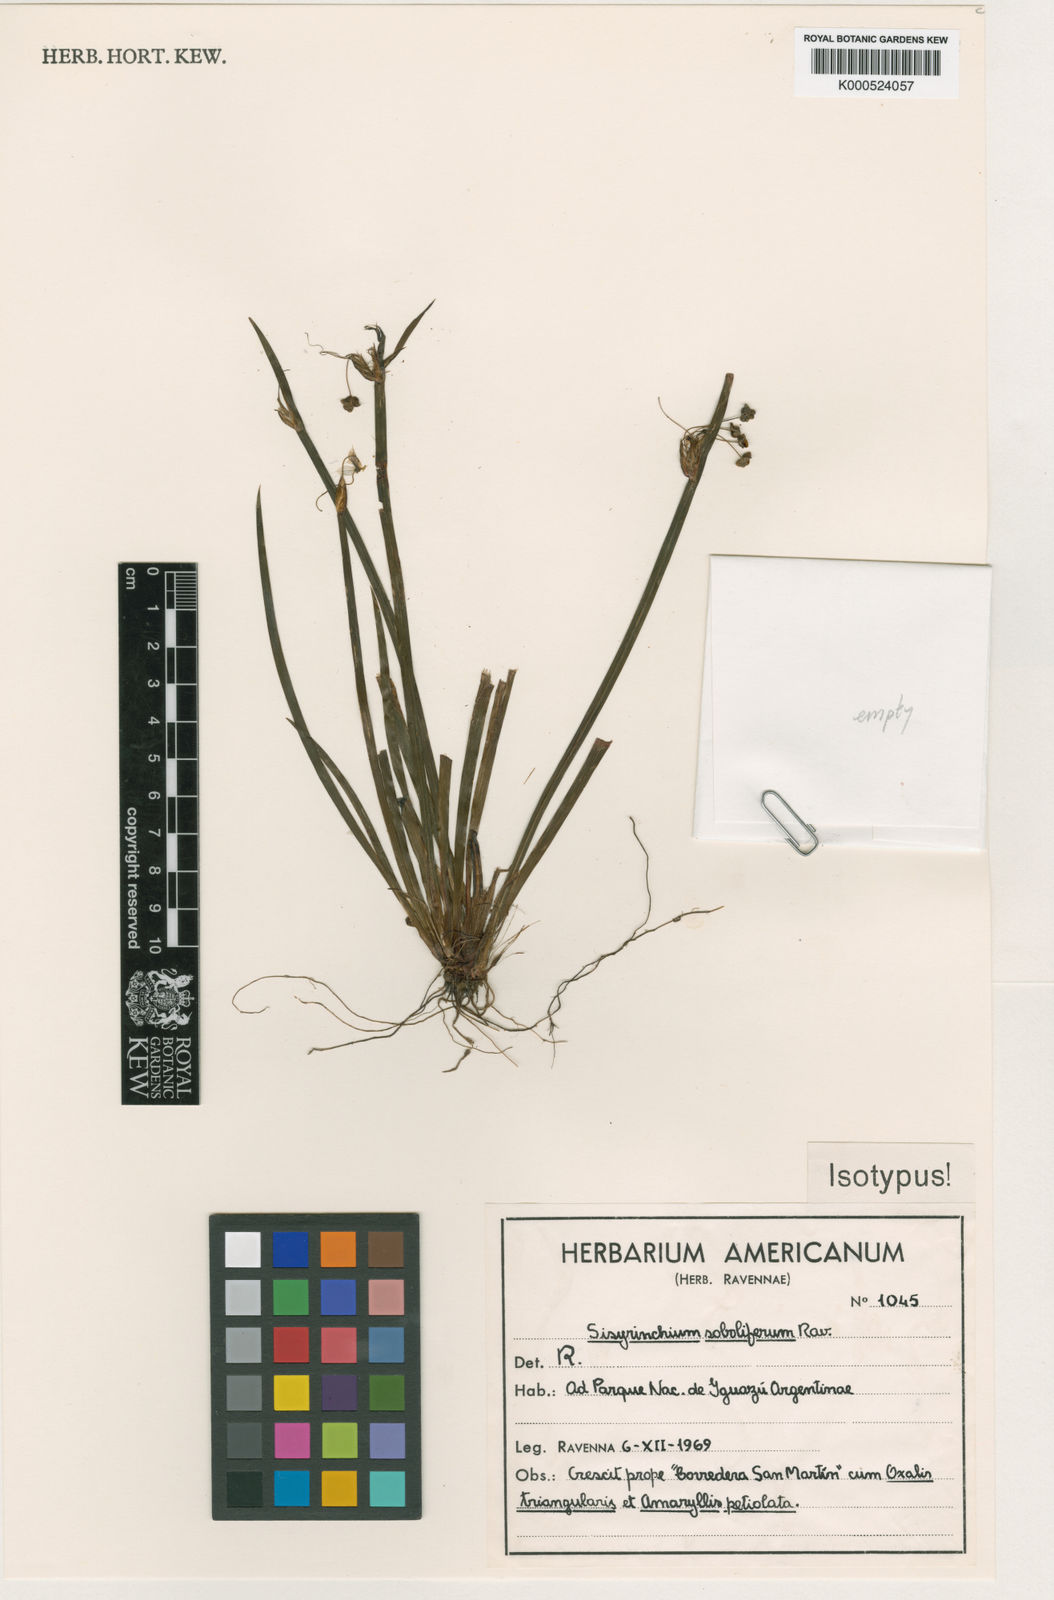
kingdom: Plantae
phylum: Tracheophyta
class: Liliopsida
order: Asparagales
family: Iridaceae
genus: Sisyrinchium
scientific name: Sisyrinchium soboliferum
